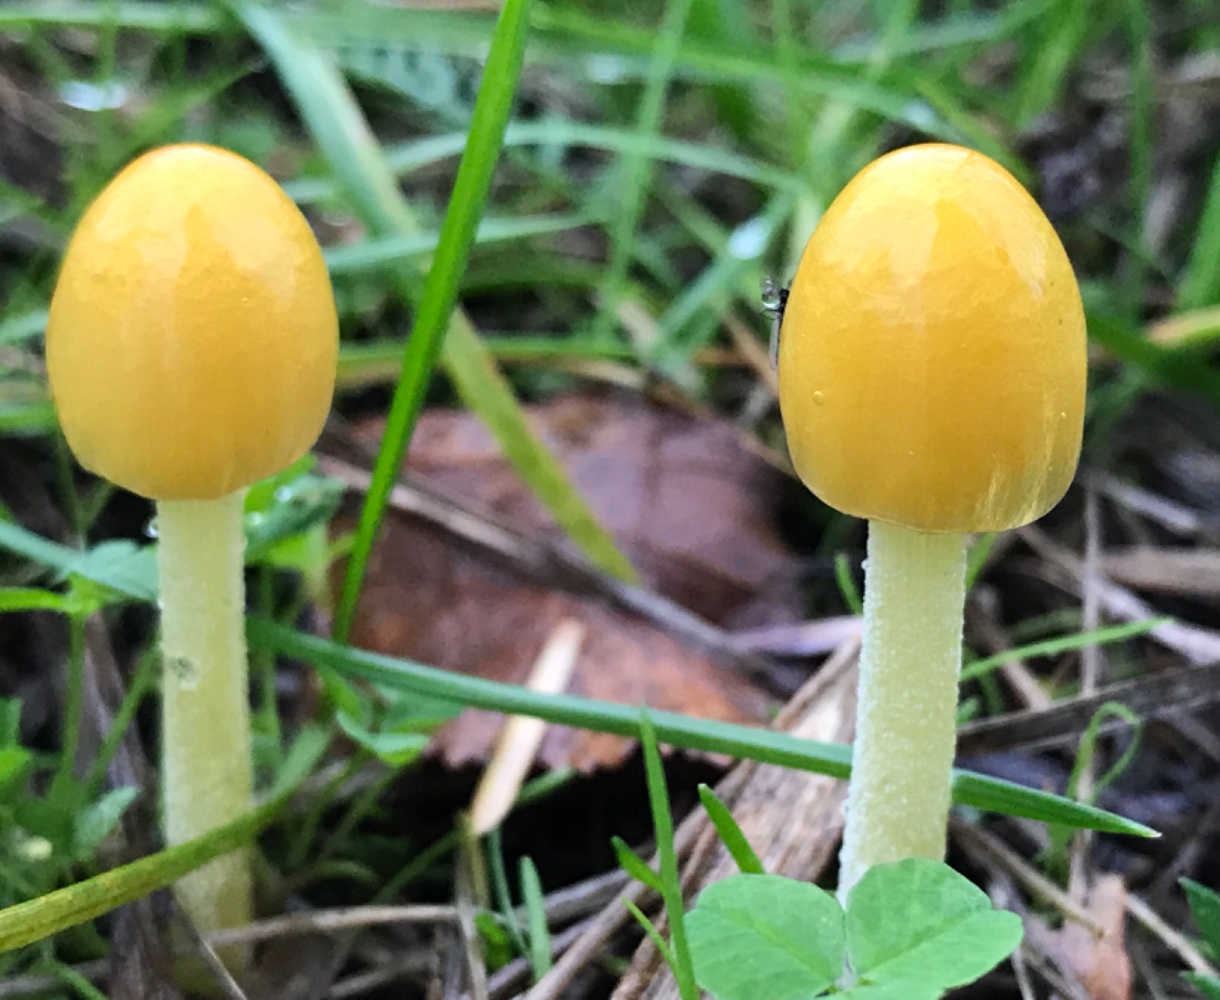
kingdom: Fungi
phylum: Basidiomycota
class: Agaricomycetes
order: Agaricales
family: Bolbitiaceae
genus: Bolbitius
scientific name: Bolbitius titubans
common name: almindelig gulhat
